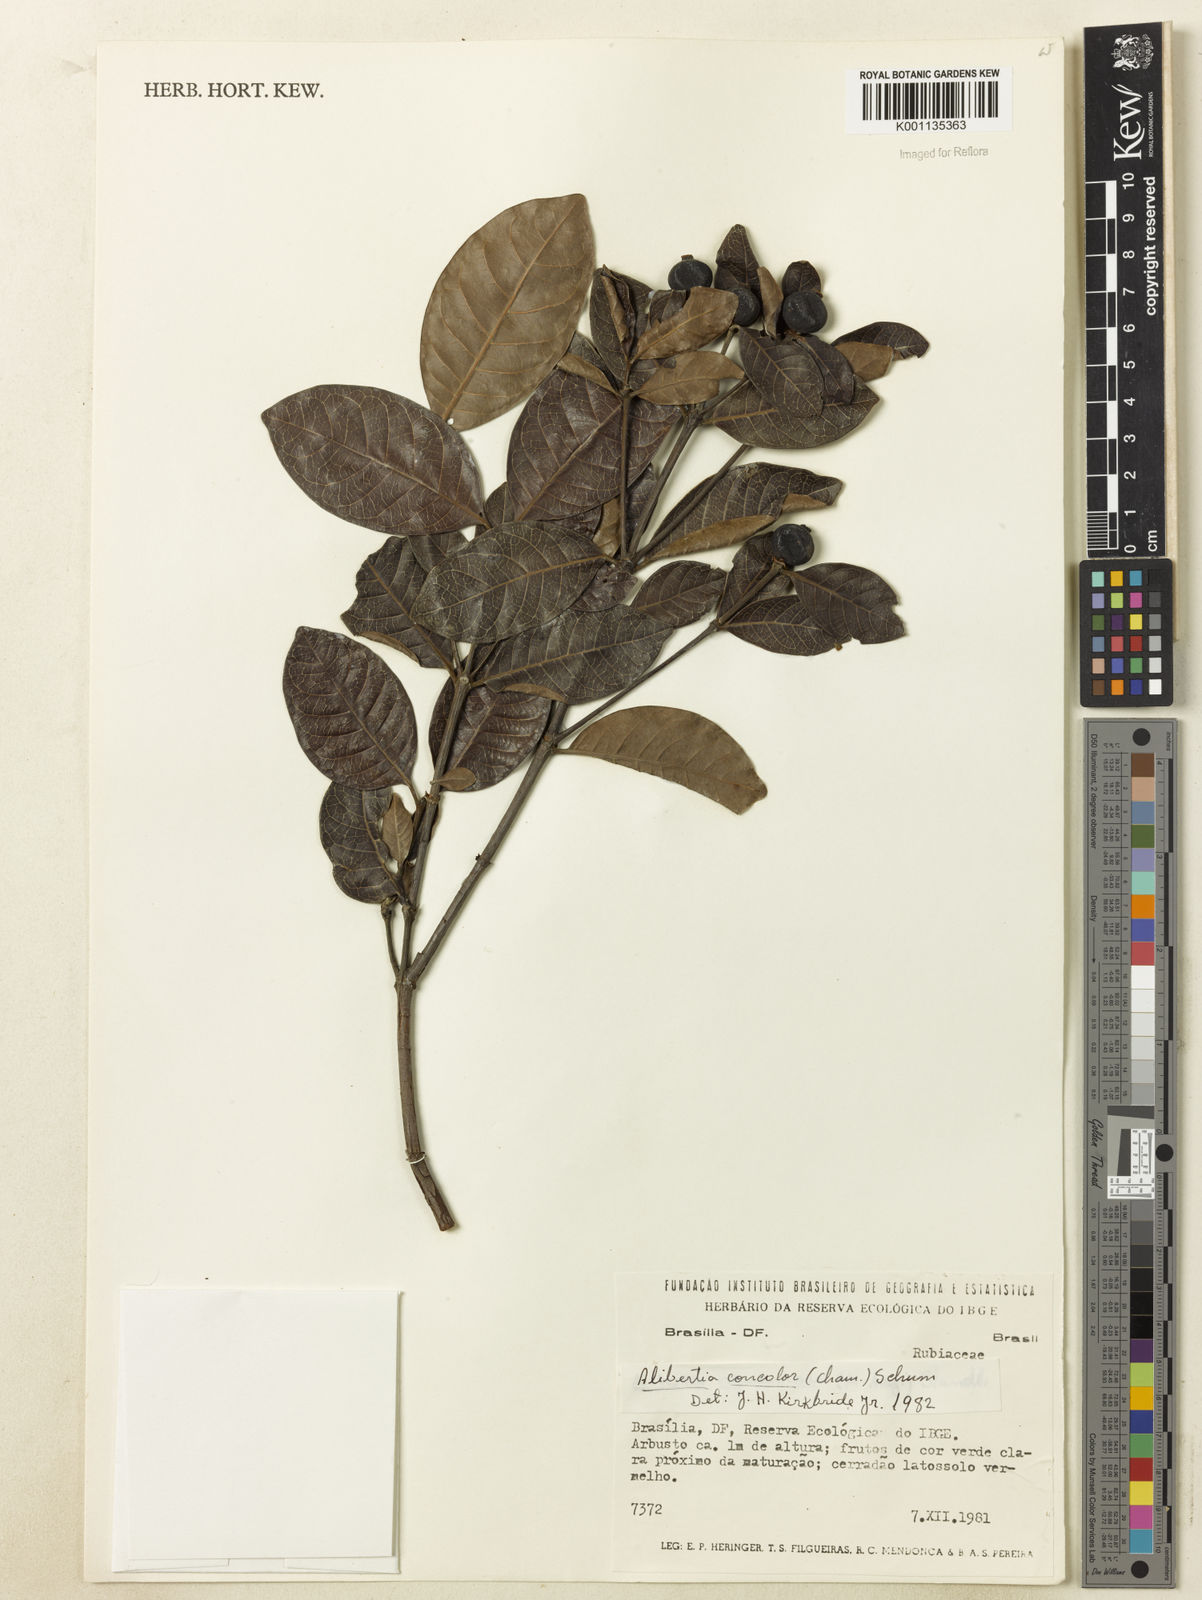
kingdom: Plantae
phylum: Tracheophyta
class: Magnoliopsida
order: Gentianales
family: Rubiaceae
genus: Cordiera
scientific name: Cordiera elliptica
